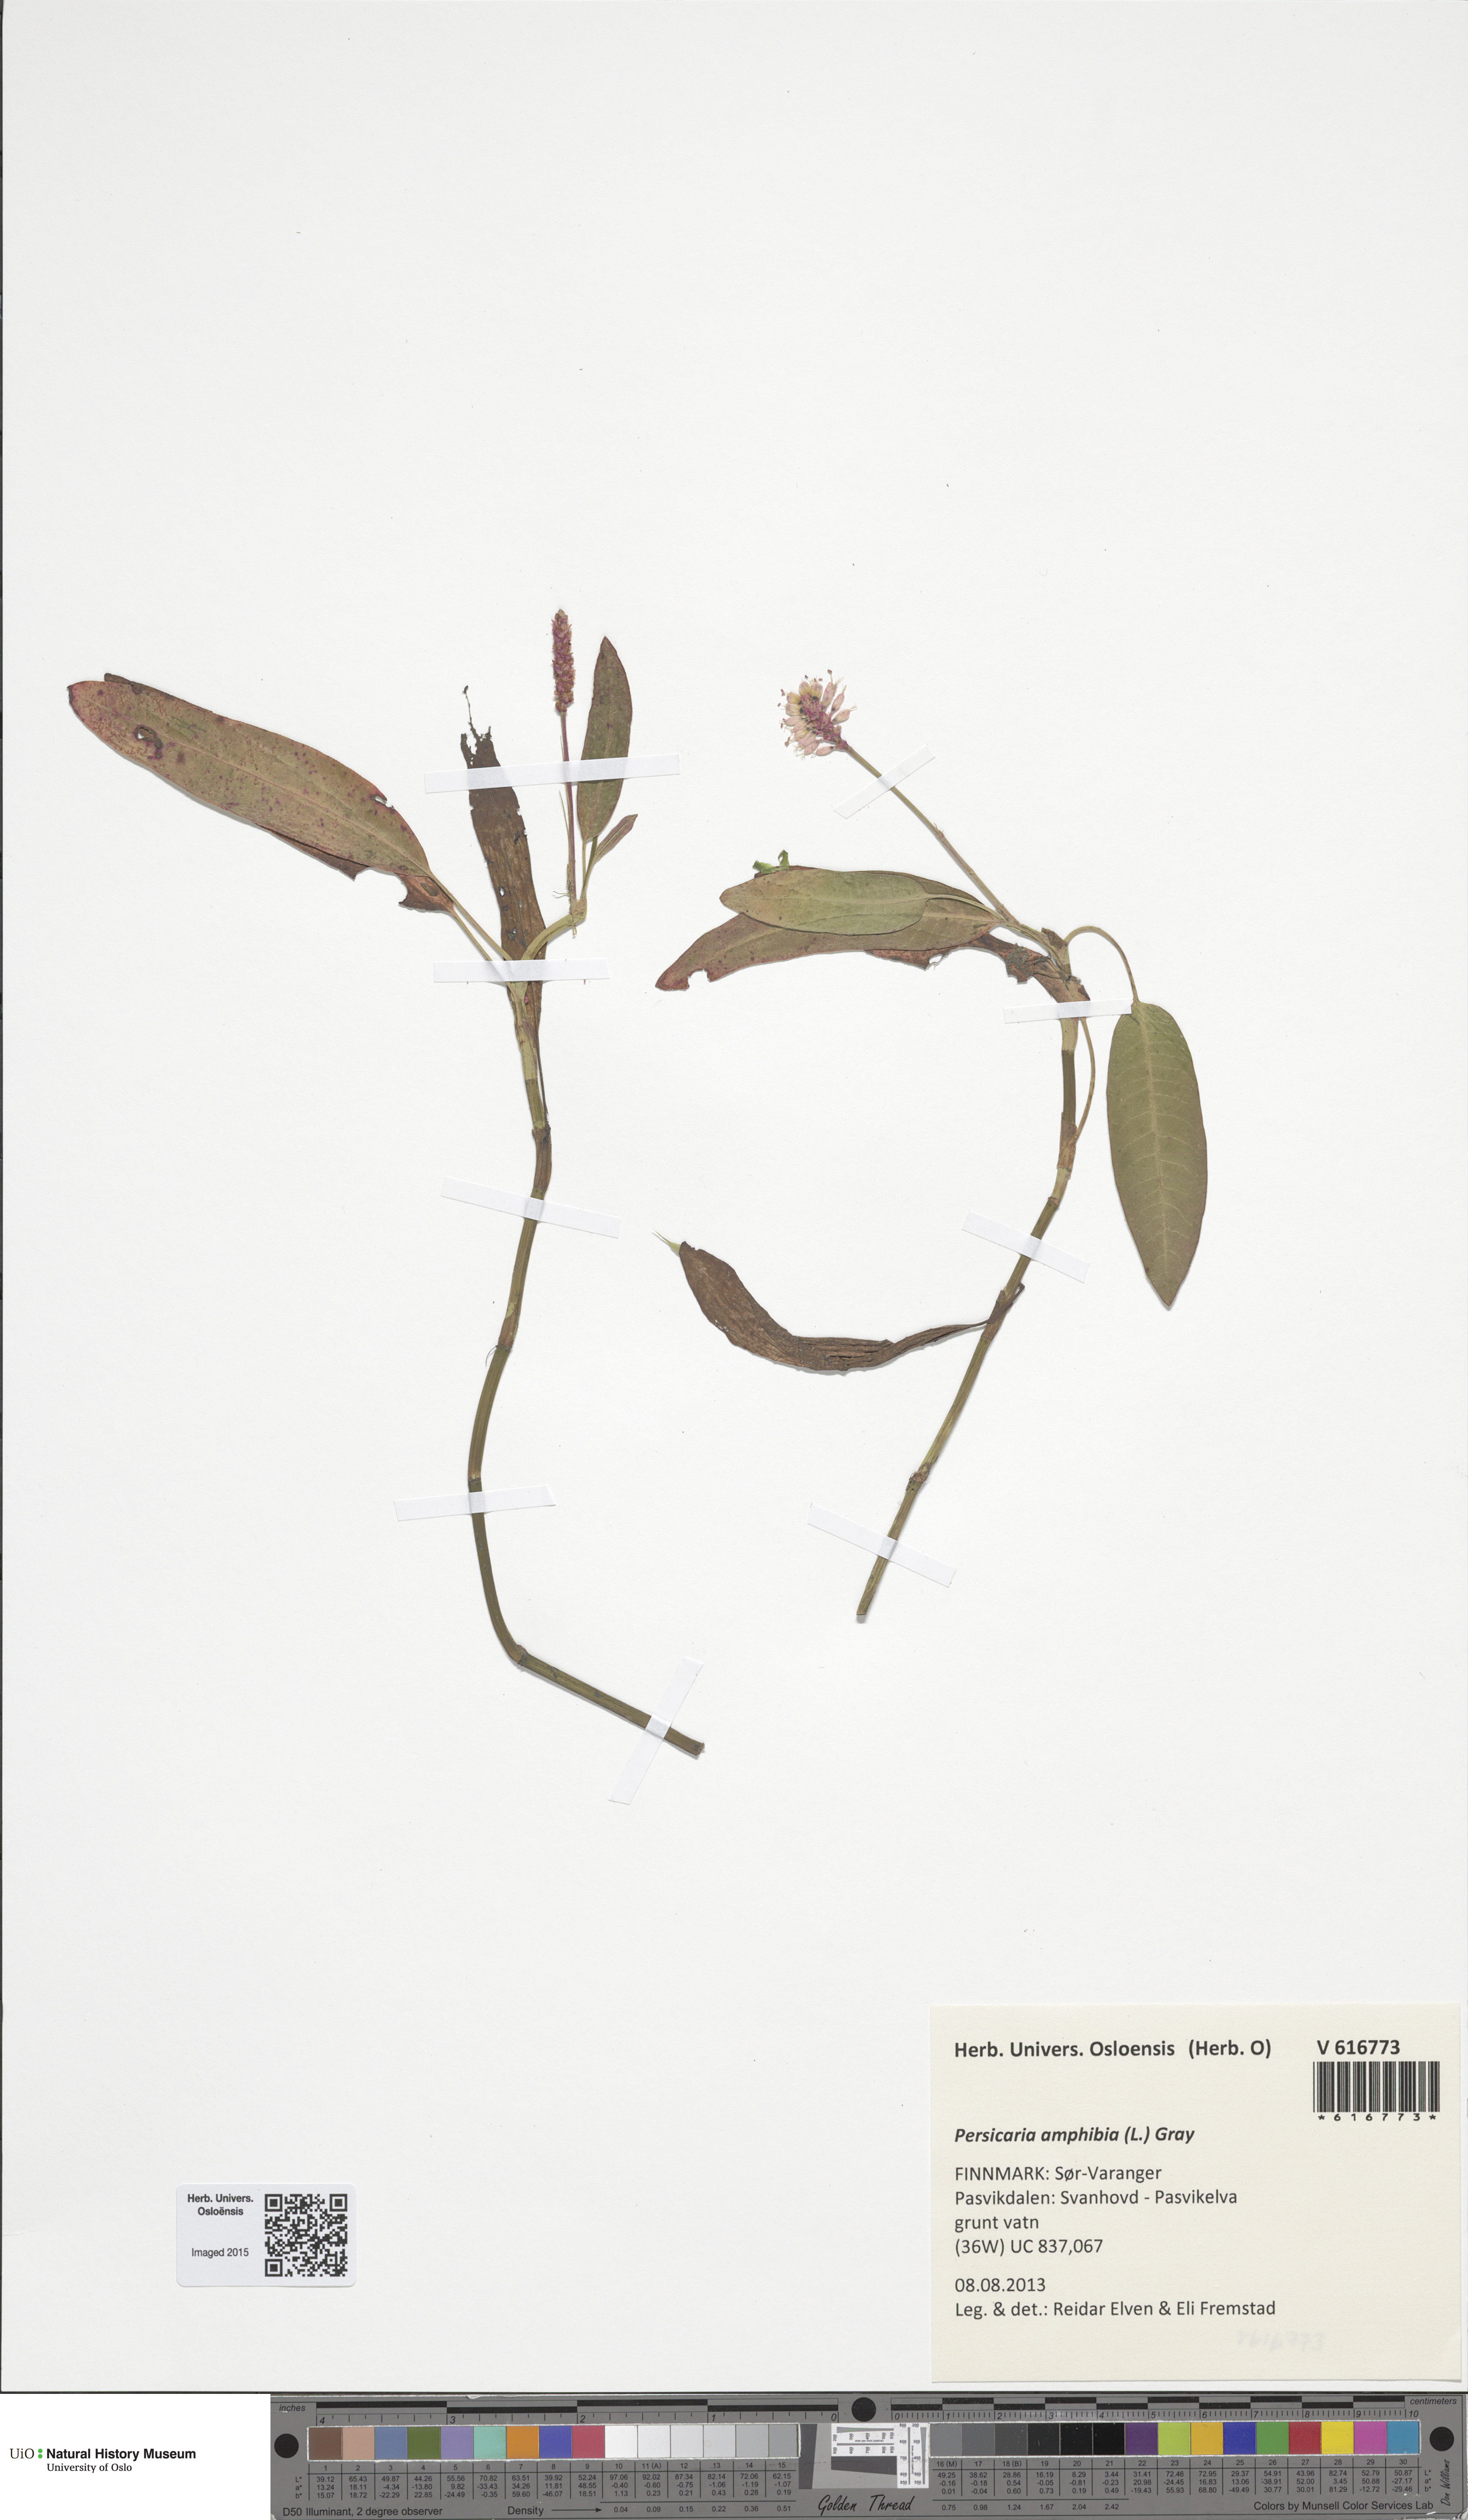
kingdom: Plantae
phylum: Tracheophyta
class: Magnoliopsida
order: Caryophyllales
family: Polygonaceae
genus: Persicaria
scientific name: Persicaria amphibia
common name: Amphibious bistort
